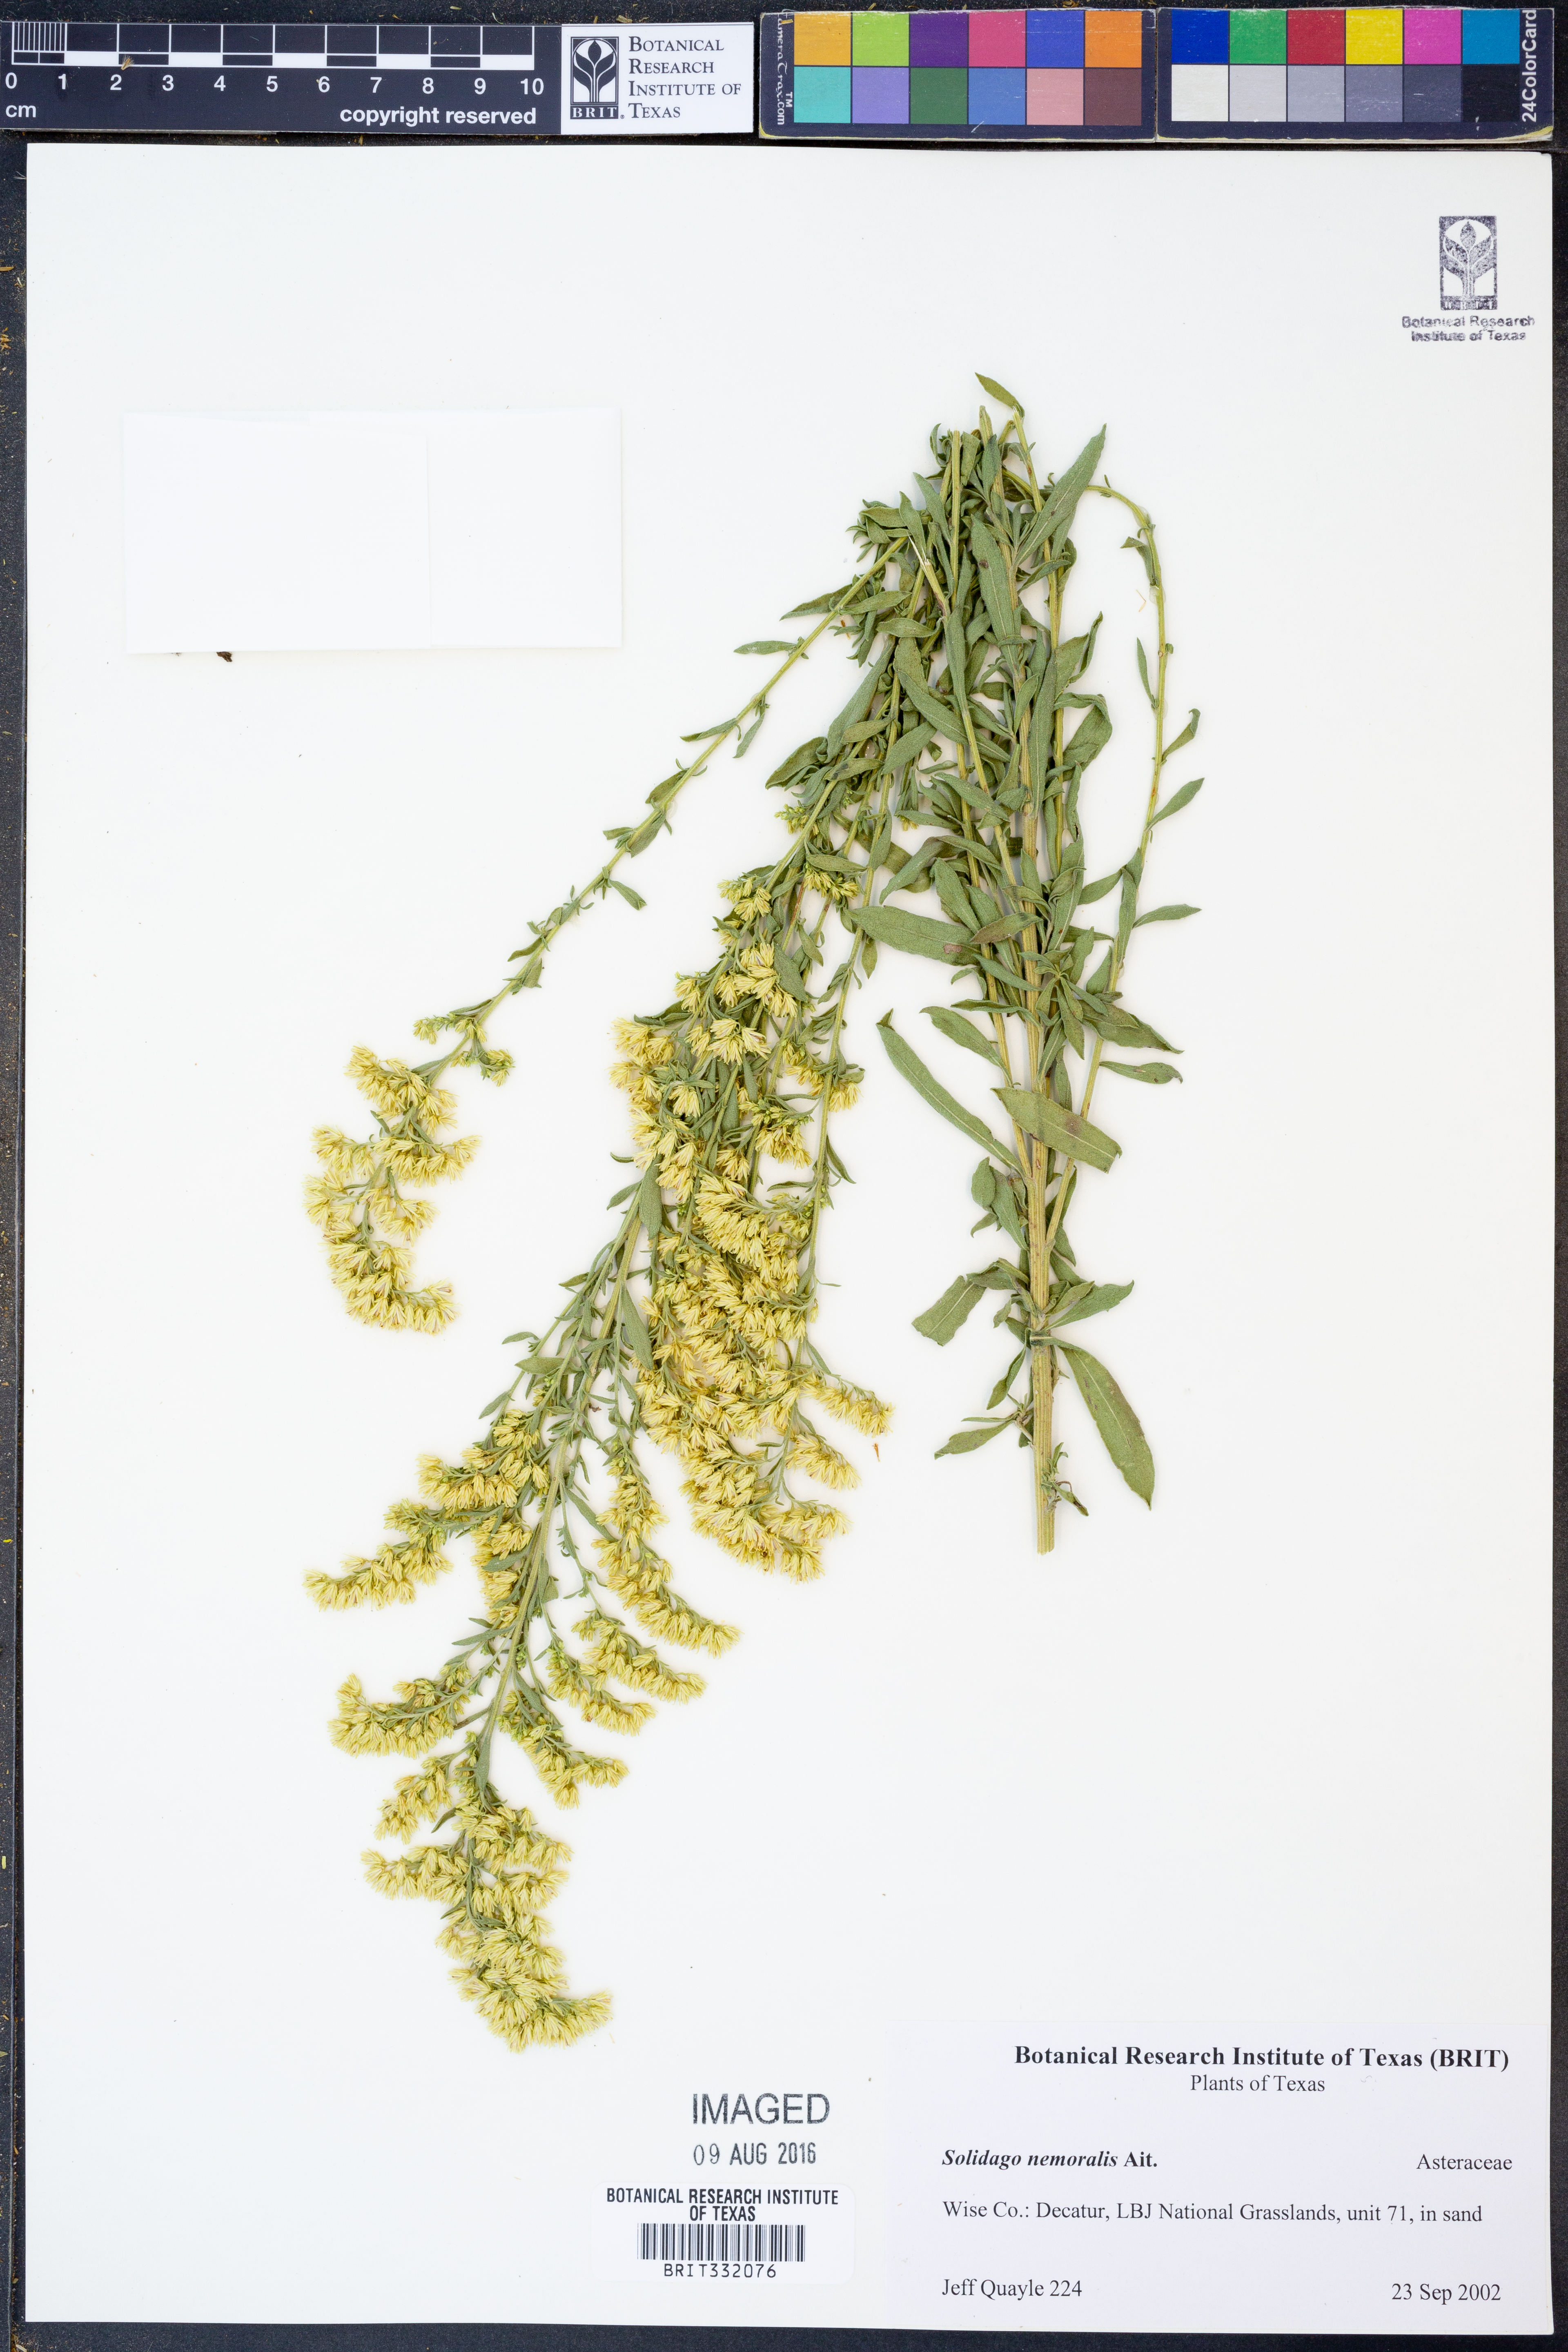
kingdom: Plantae
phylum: Tracheophyta
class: Magnoliopsida
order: Asterales
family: Asteraceae
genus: Solidago
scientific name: Solidago nemoralis
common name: Grey goldenrod
